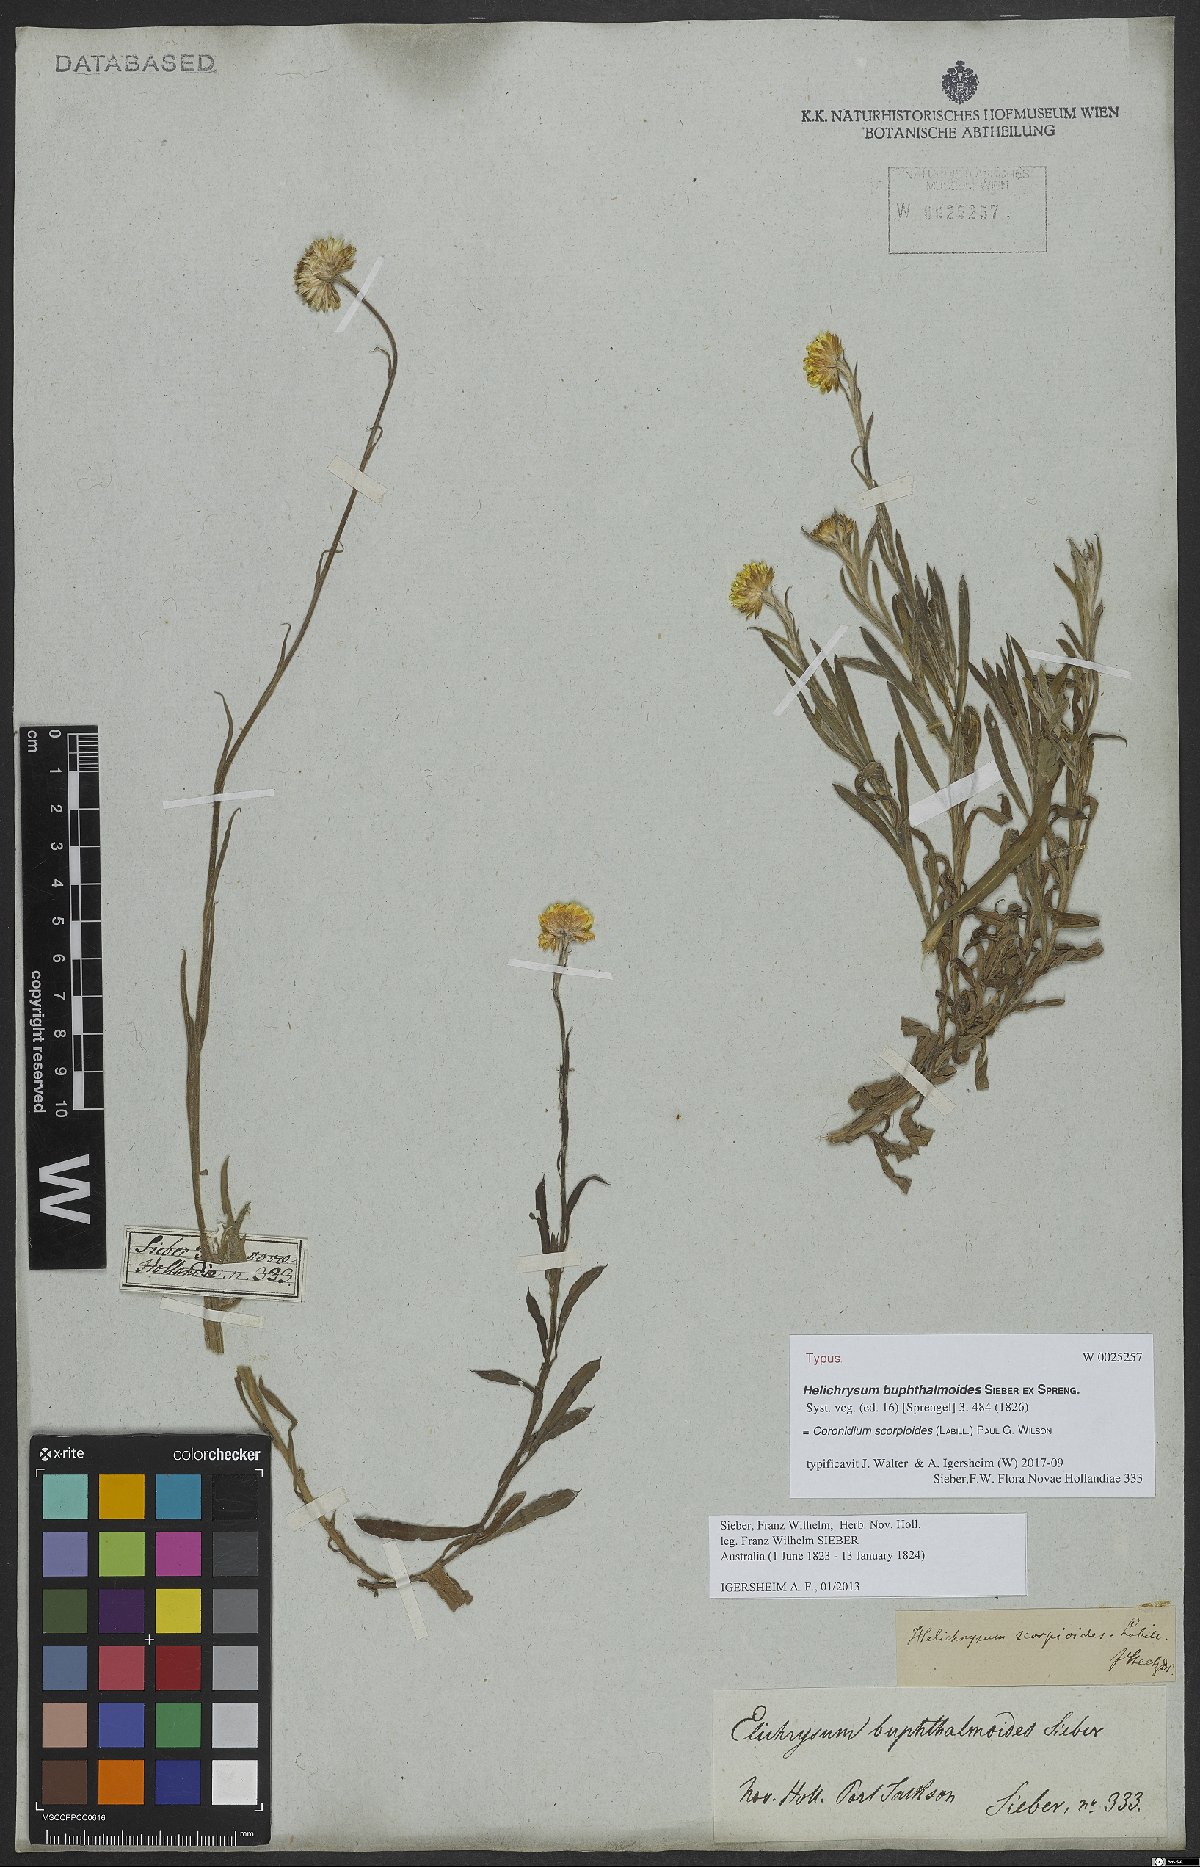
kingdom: Plantae
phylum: Tracheophyta
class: Magnoliopsida
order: Asterales
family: Asteraceae
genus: Coronidium
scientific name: Coronidium scorpioides
